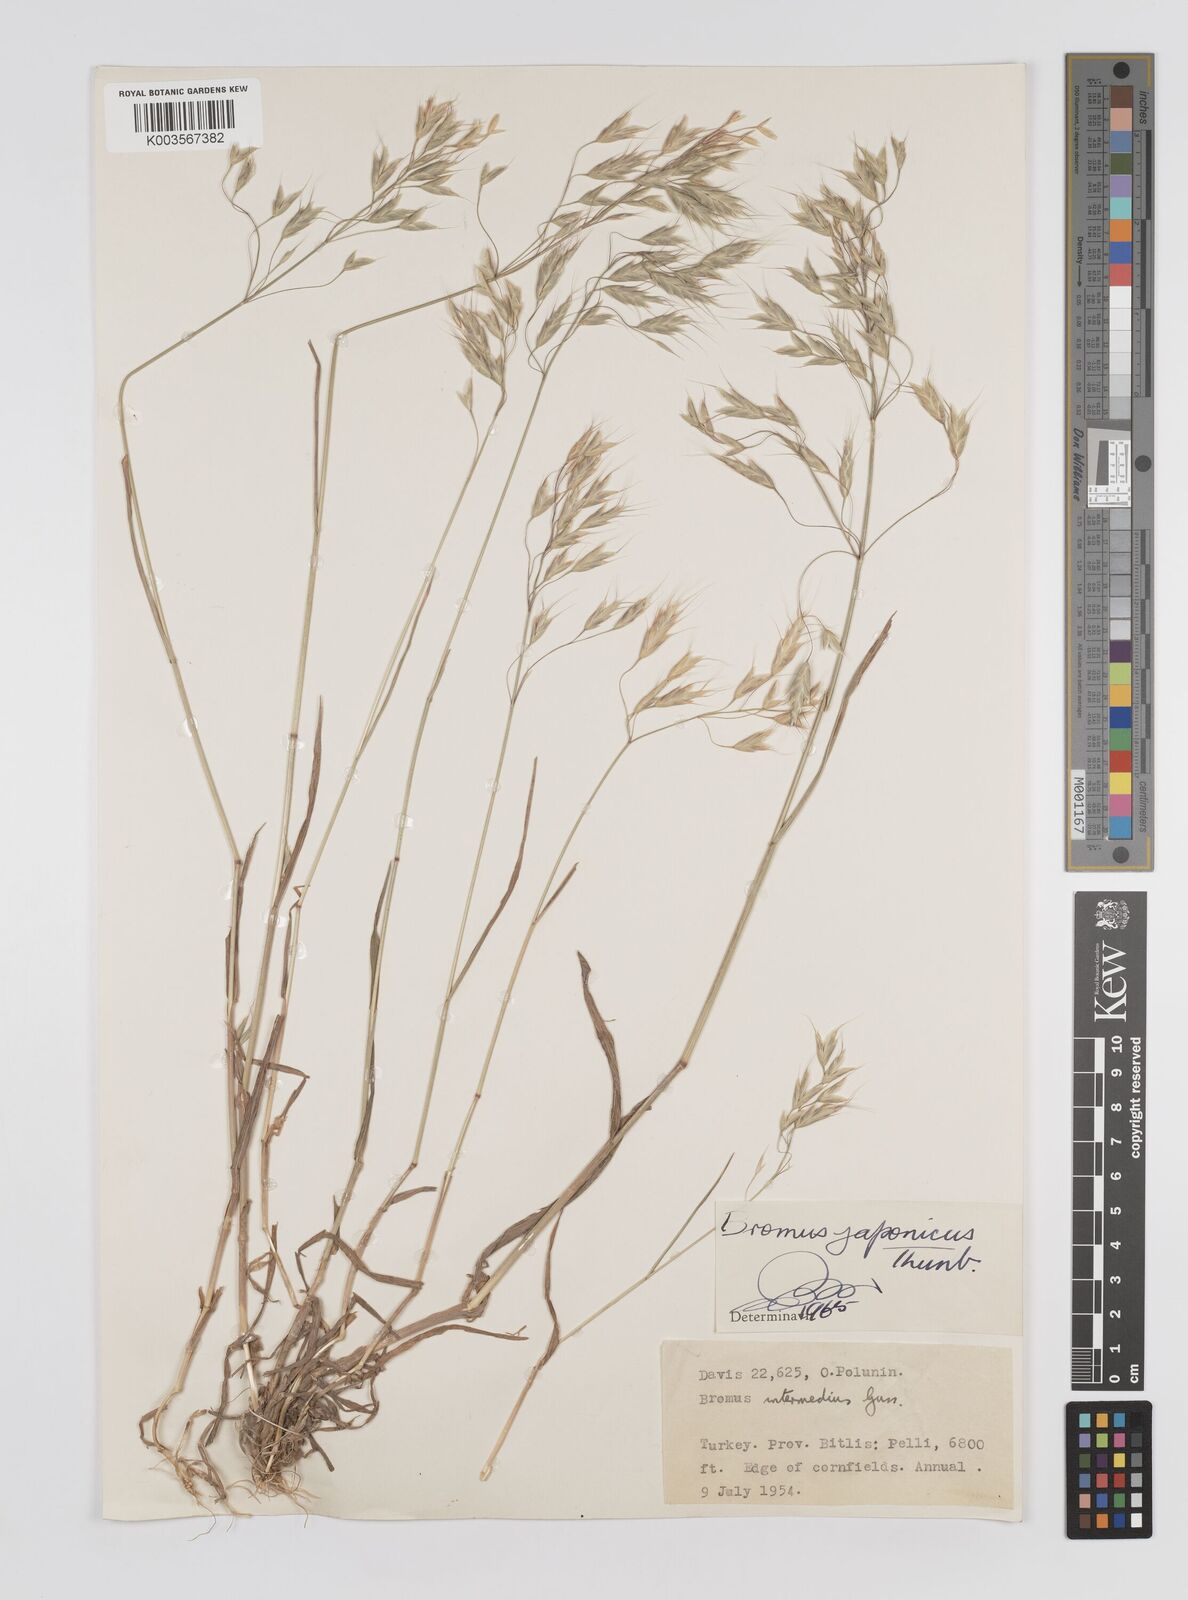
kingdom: Plantae
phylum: Tracheophyta
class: Liliopsida
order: Poales
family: Poaceae
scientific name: Poaceae
